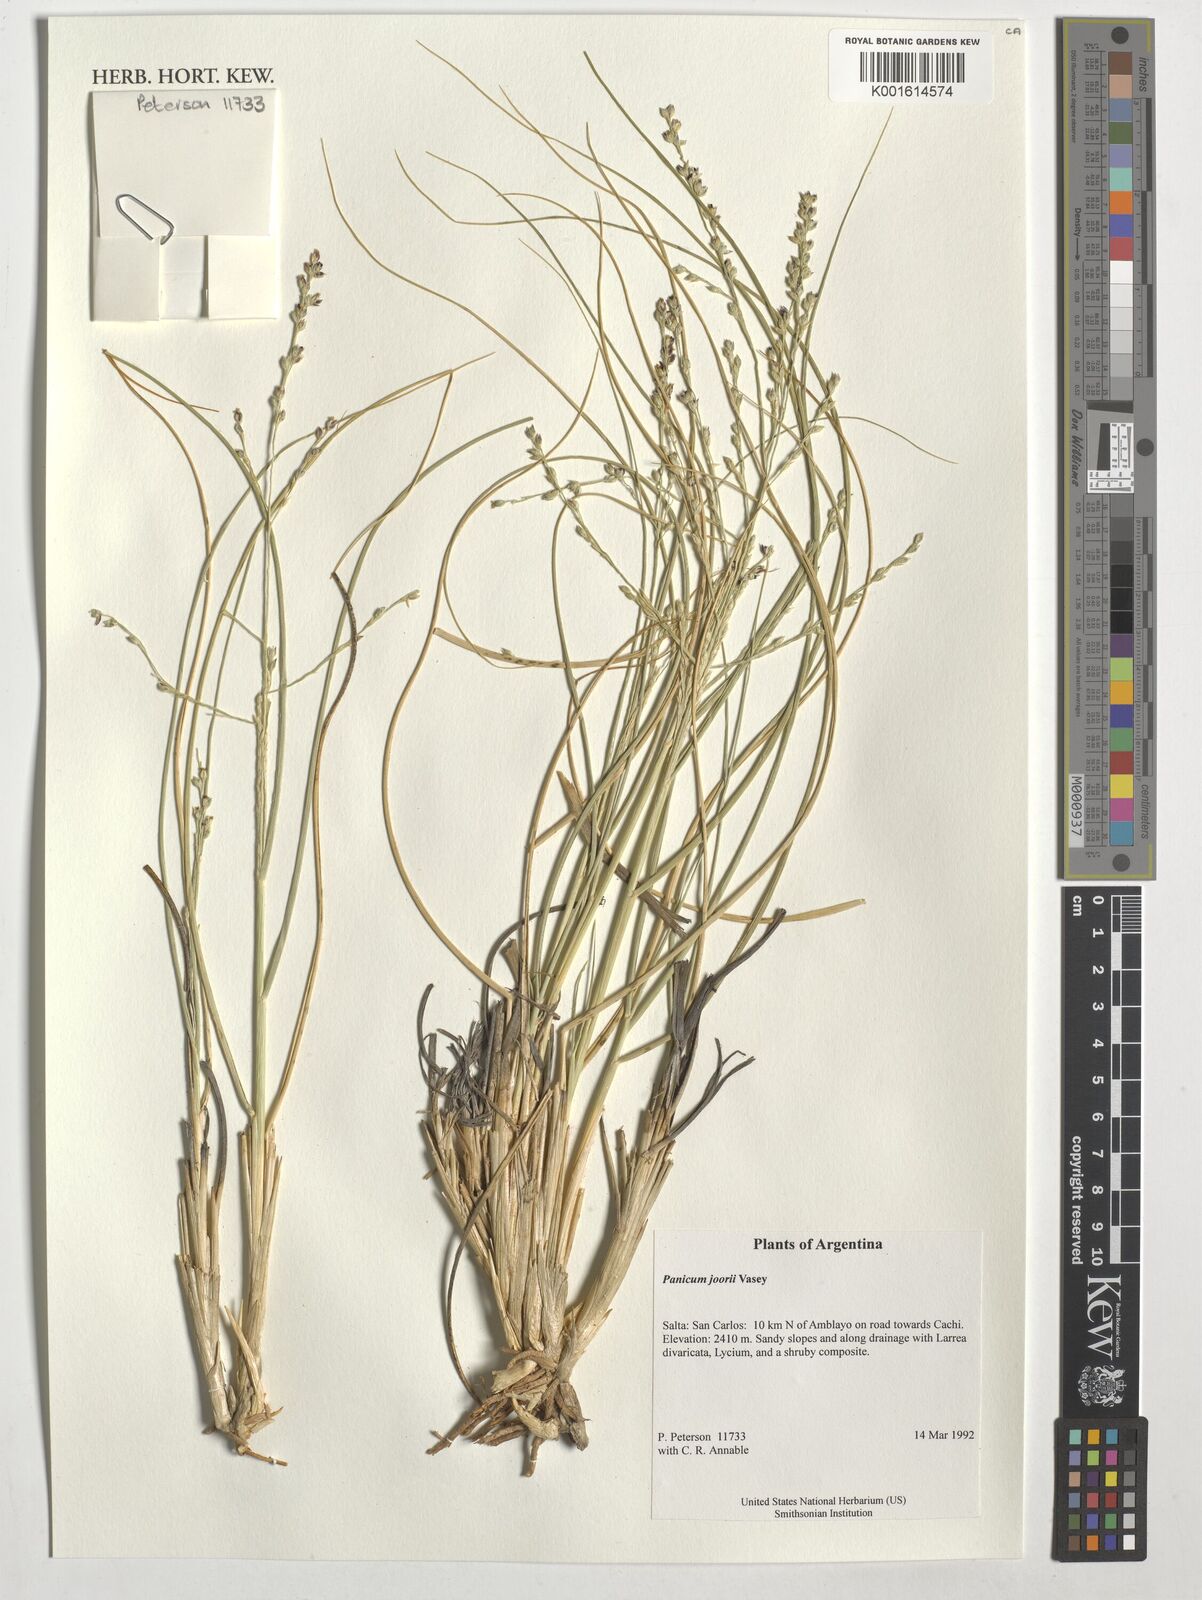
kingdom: Plantae
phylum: Tracheophyta
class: Liliopsida
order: Poales
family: Poaceae
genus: Dichanthelium
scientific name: Dichanthelium commutatum
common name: Variable witchgrass
